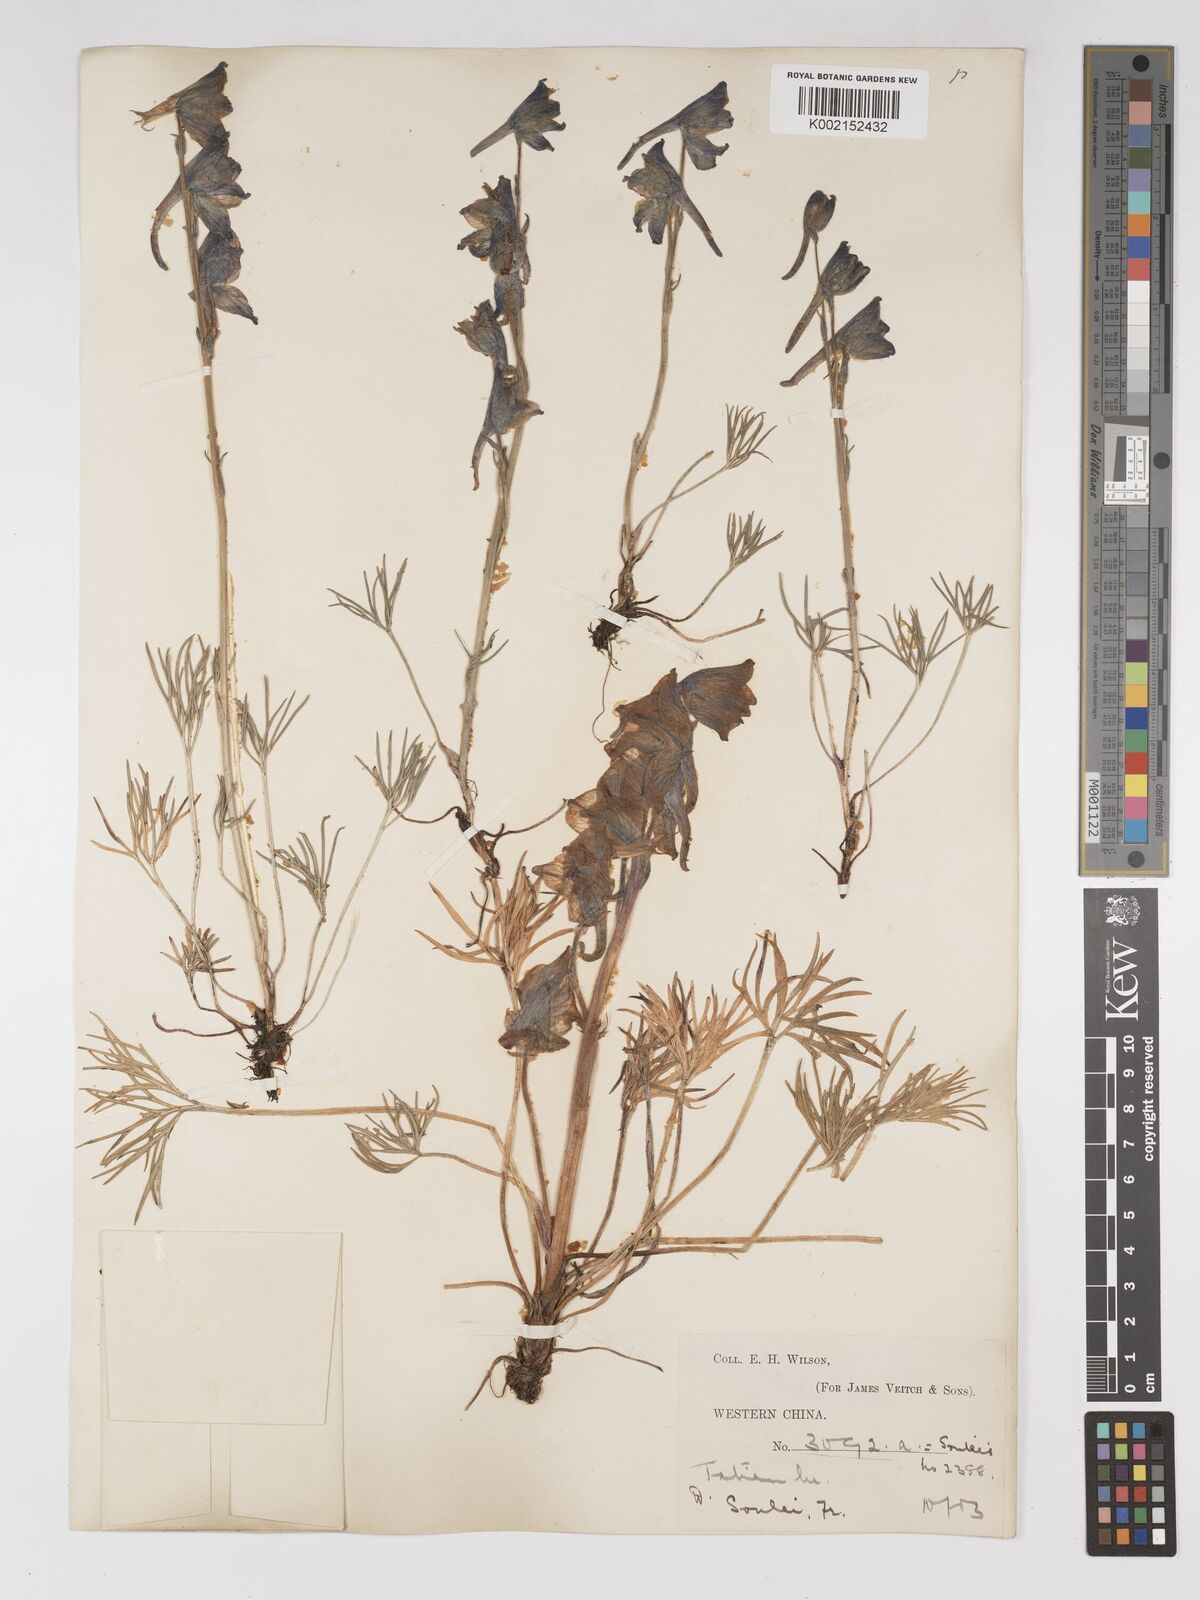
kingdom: Plantae
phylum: Tracheophyta
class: Magnoliopsida
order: Ranunculales
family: Ranunculaceae
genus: Delphinium
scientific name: Delphinium souliei
